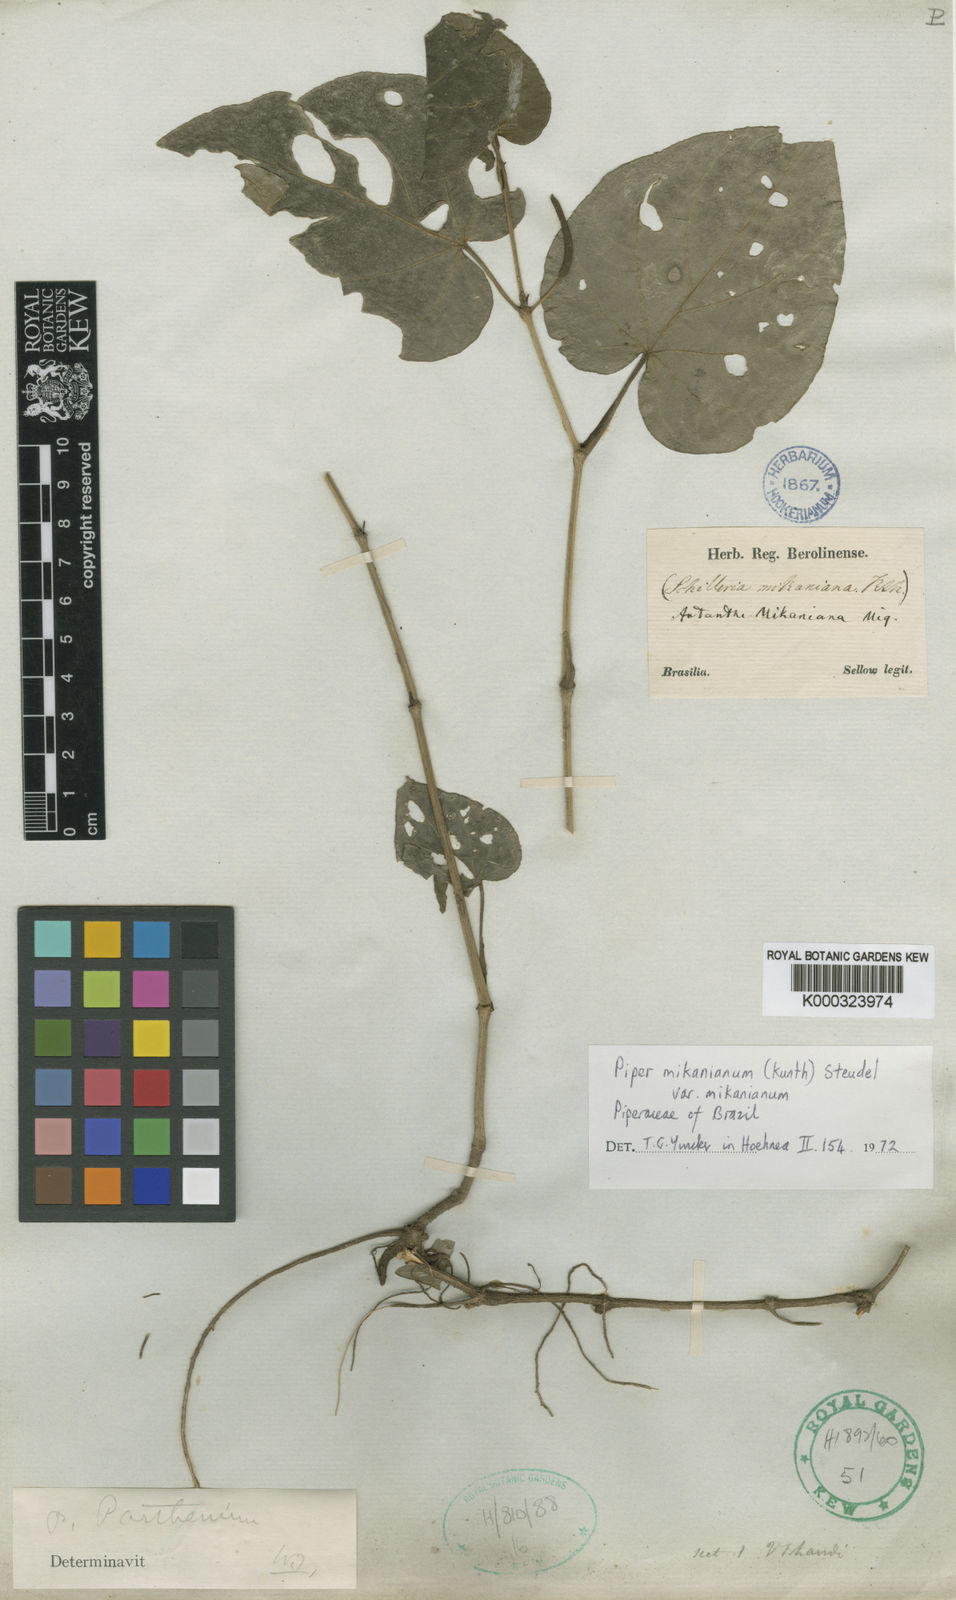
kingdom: Plantae
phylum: Tracheophyta
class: Magnoliopsida
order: Piperales
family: Piperaceae
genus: Piper
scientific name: Piper mikanianum
